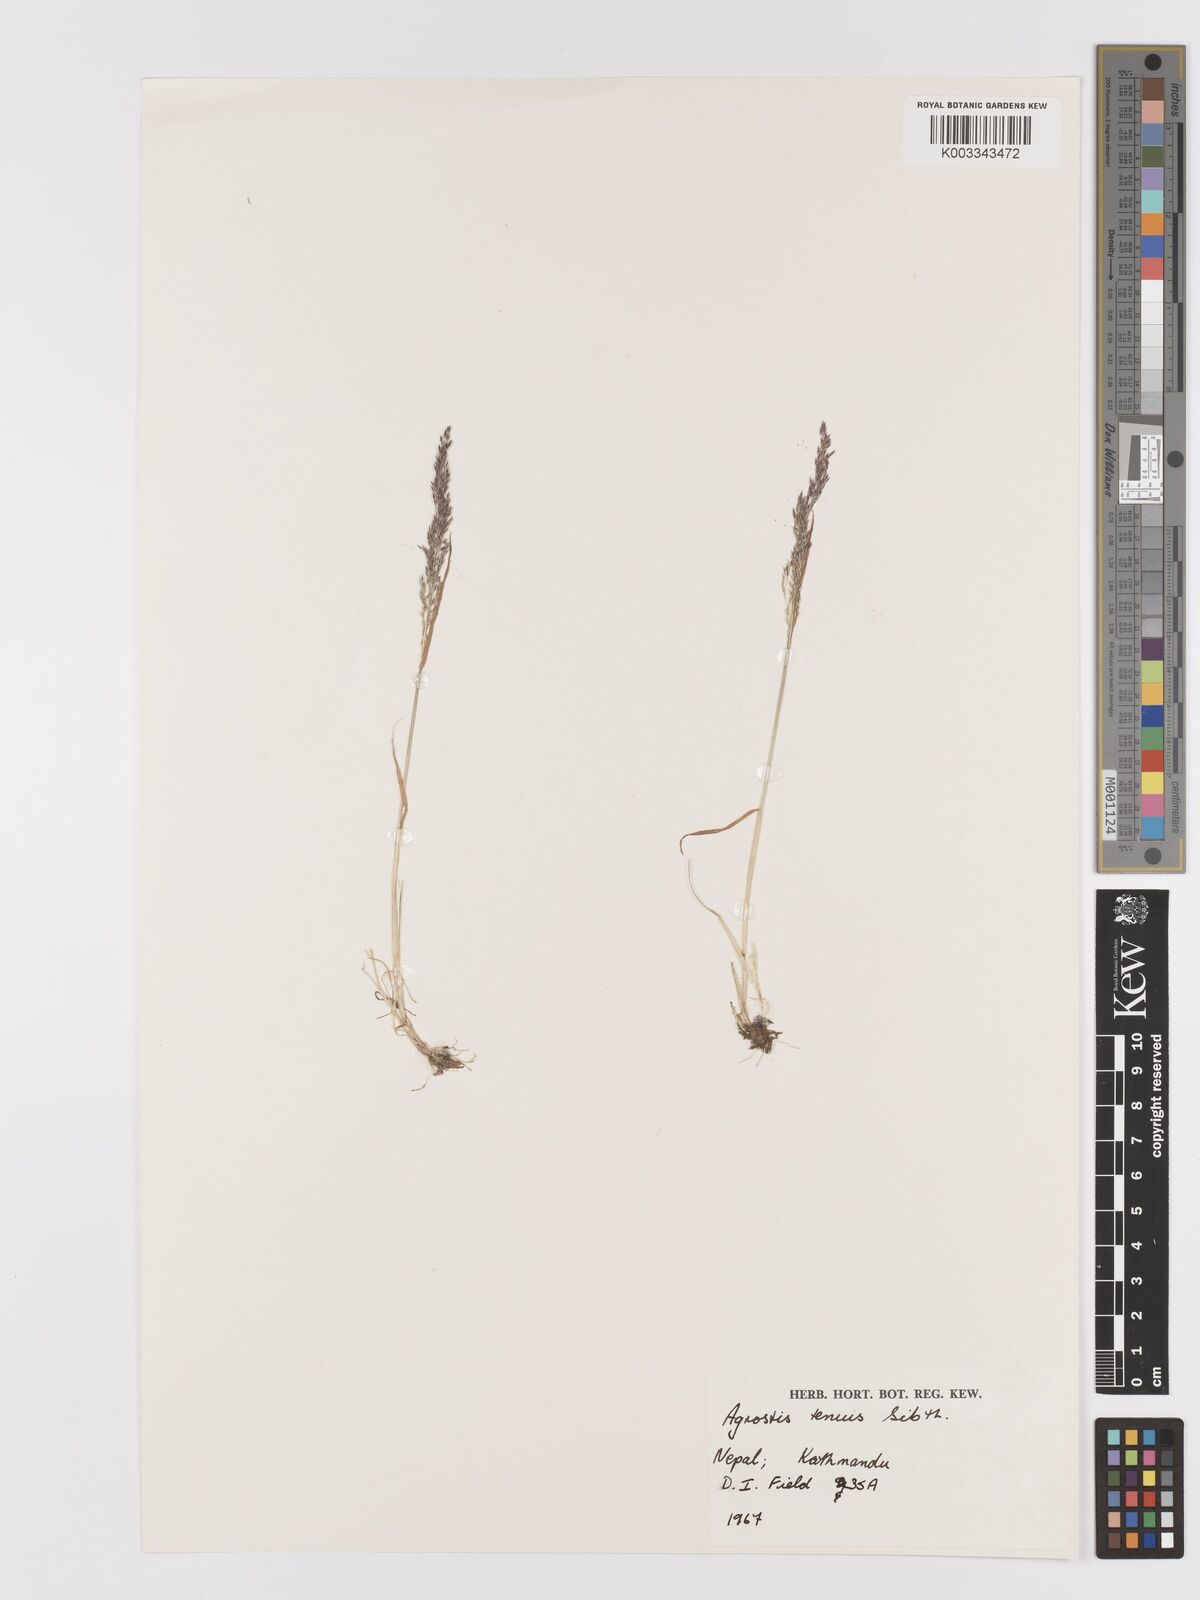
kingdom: Plantae
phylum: Tracheophyta
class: Liliopsida
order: Poales
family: Poaceae
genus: Agrostis
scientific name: Agrostis capillaris
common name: Colonial bentgrass
